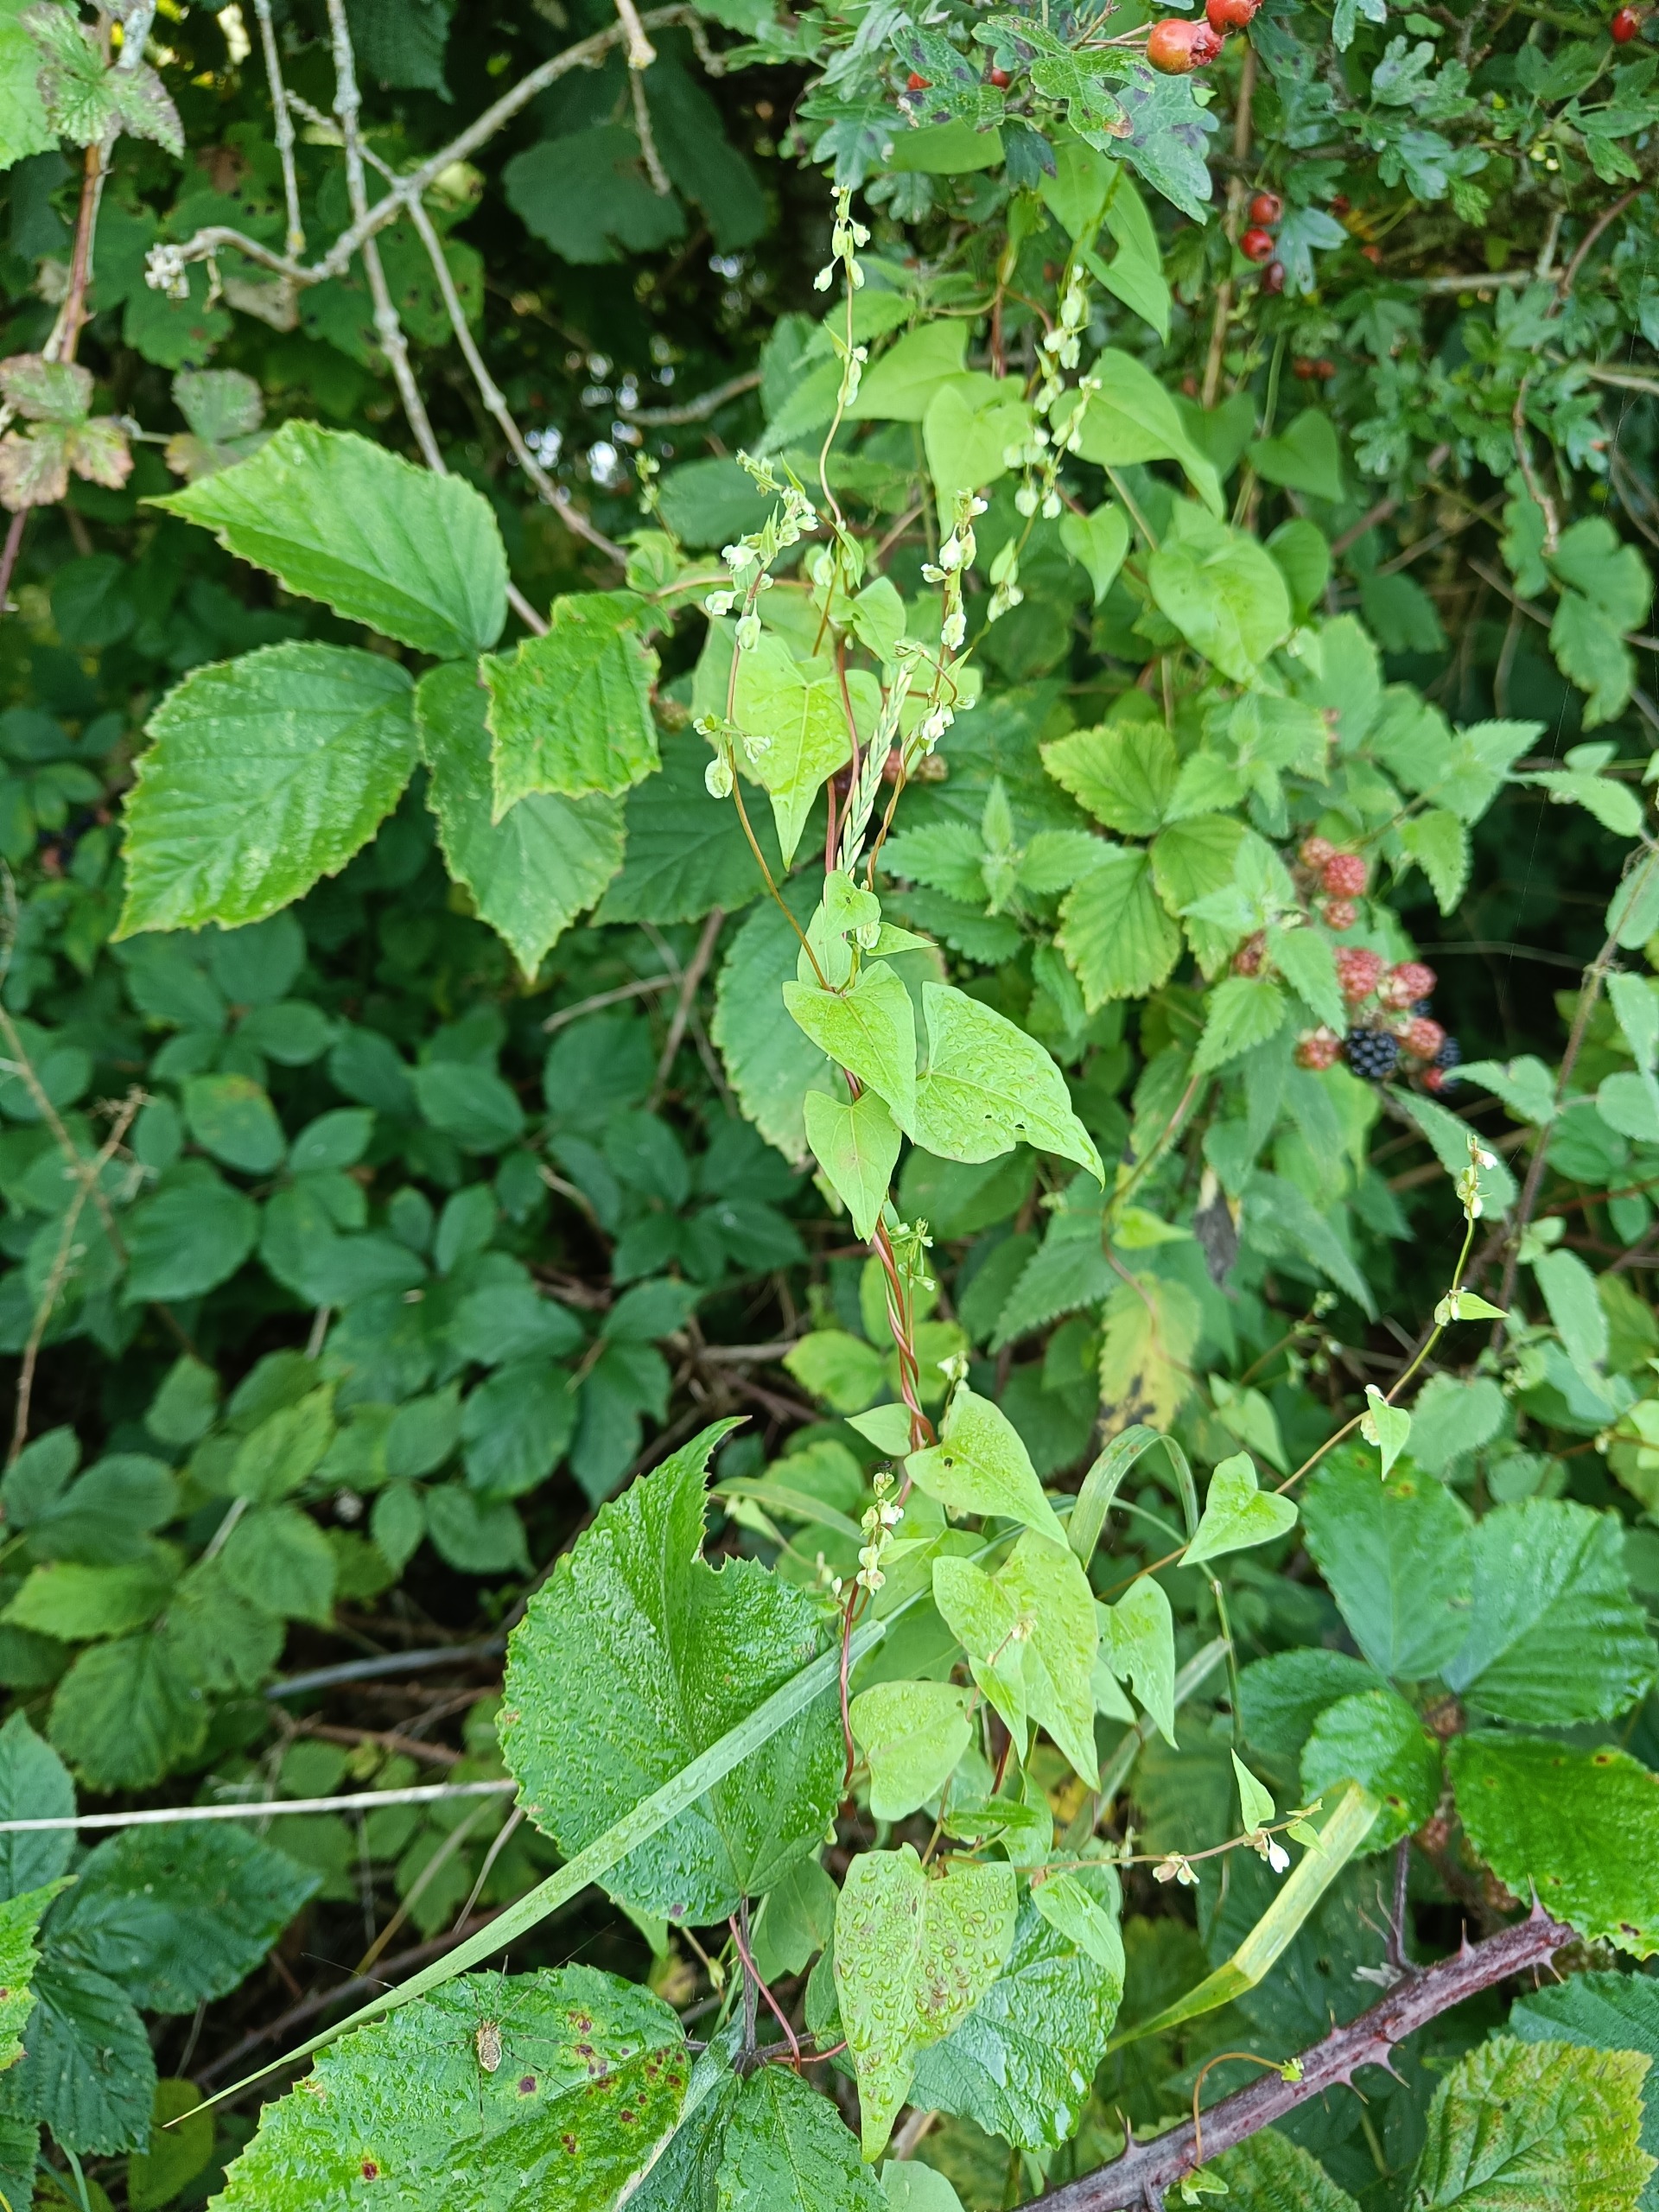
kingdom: Plantae
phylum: Tracheophyta
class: Magnoliopsida
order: Caryophyllales
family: Polygonaceae
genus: Fallopia
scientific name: Fallopia dumetorum
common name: Vinge-pileurt
